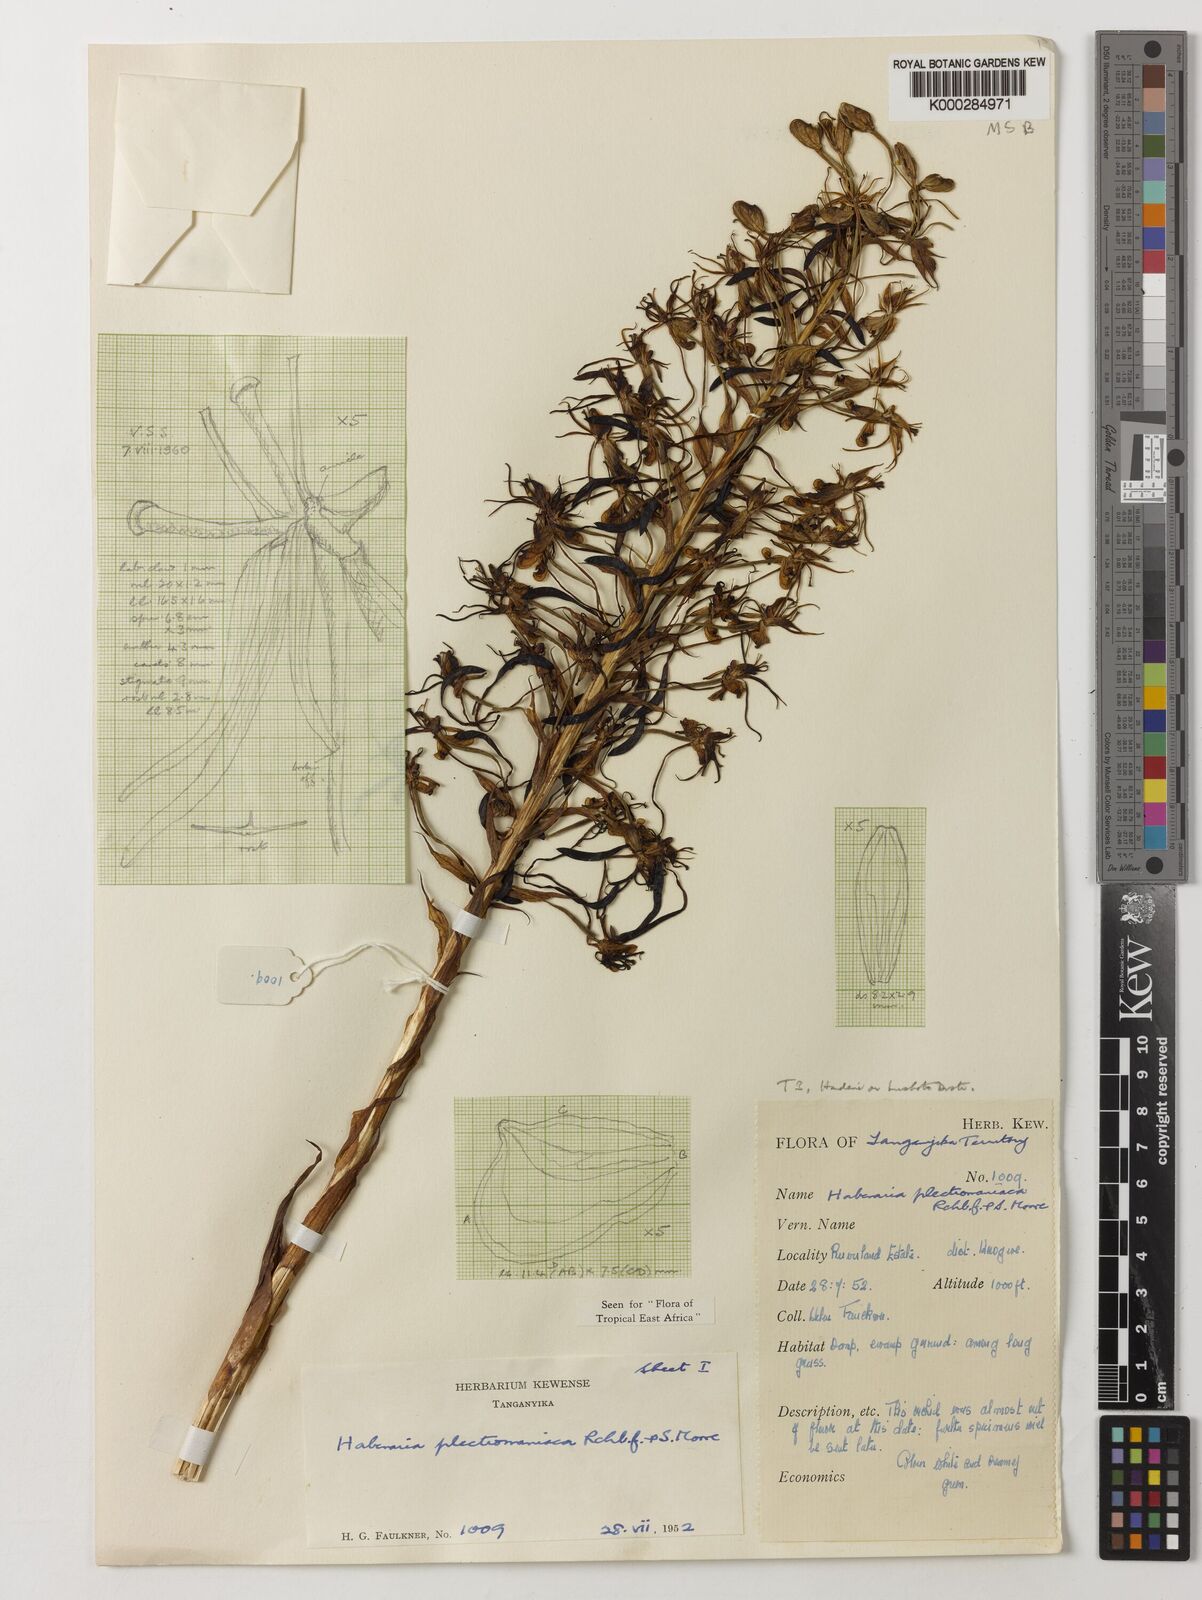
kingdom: Plantae
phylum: Tracheophyta
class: Liliopsida
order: Asparagales
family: Orchidaceae
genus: Habenaria
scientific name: Habenaria plectromaniaca
